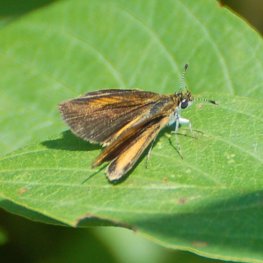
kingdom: Animalia
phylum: Arthropoda
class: Insecta
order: Lepidoptera
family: Hesperiidae
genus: Ancyloxypha
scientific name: Ancyloxypha numitor
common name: Least Skipper
